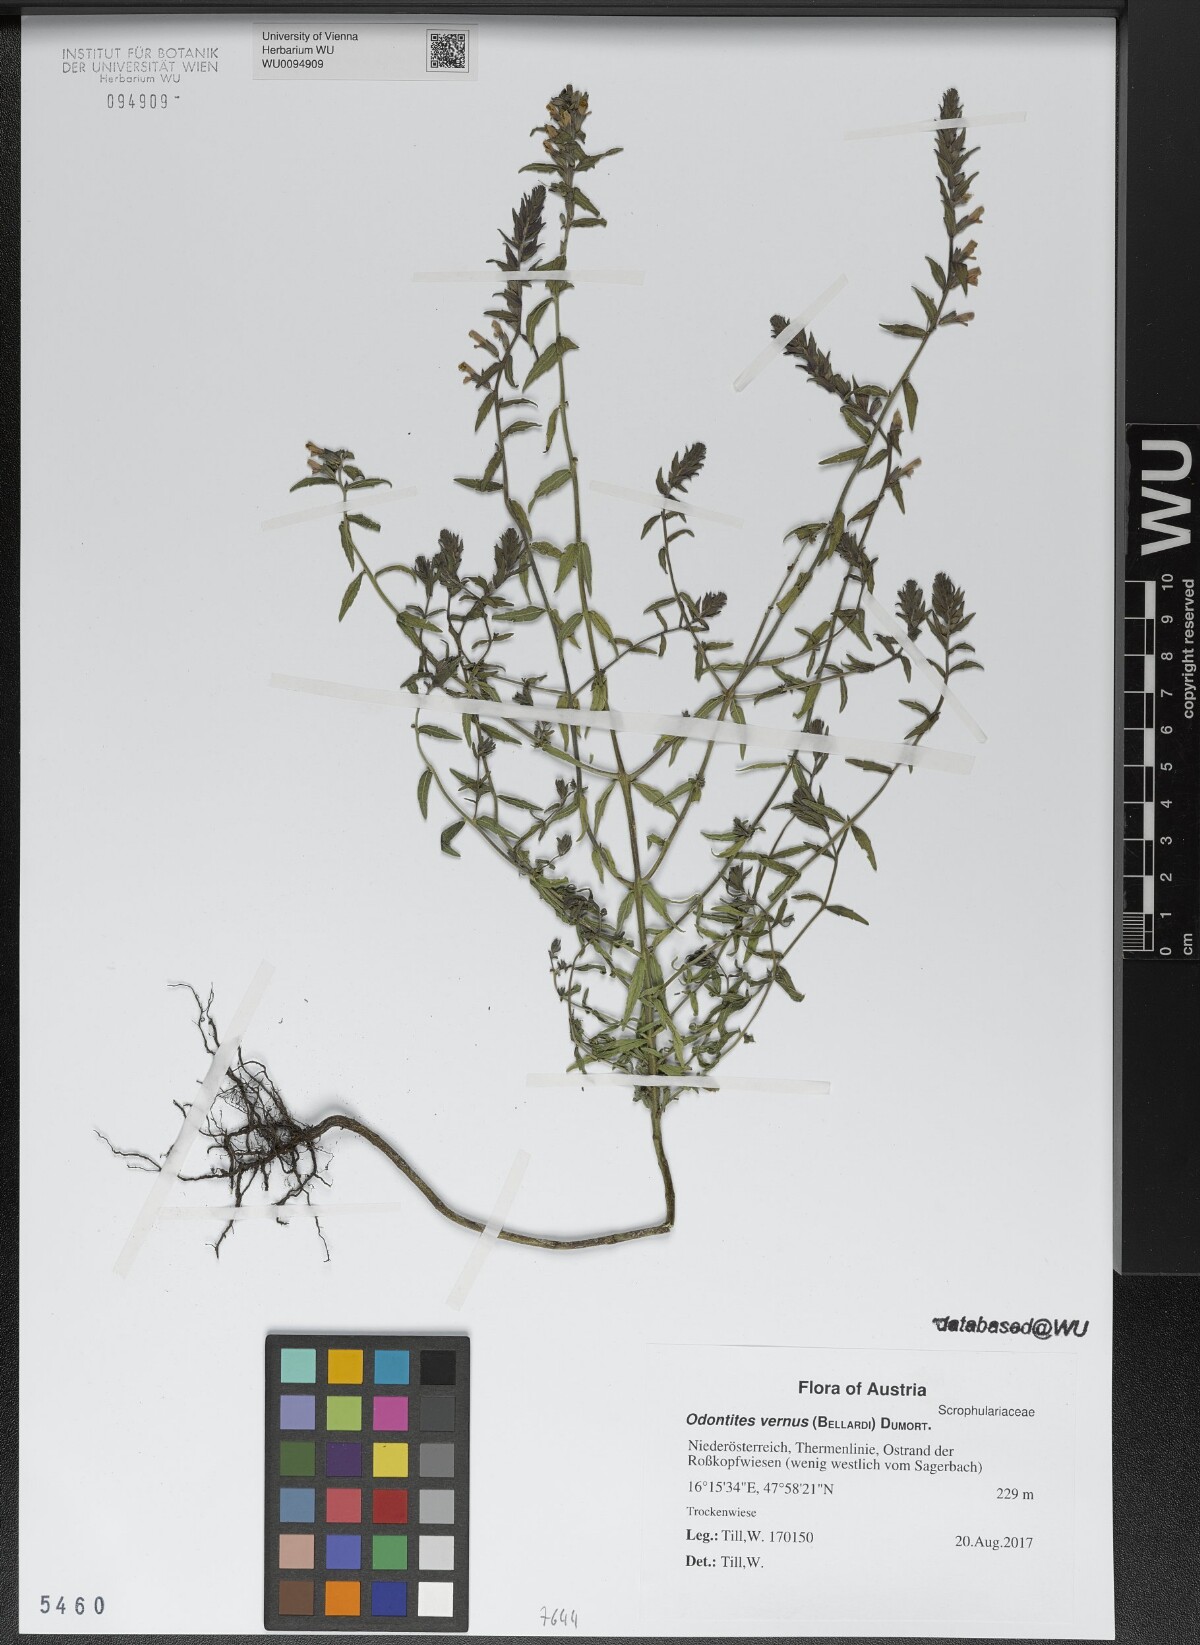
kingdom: Plantae
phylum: Tracheophyta
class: Magnoliopsida
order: Lamiales
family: Orobanchaceae
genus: Odontites
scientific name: Odontites vernus
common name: Red bartsia
